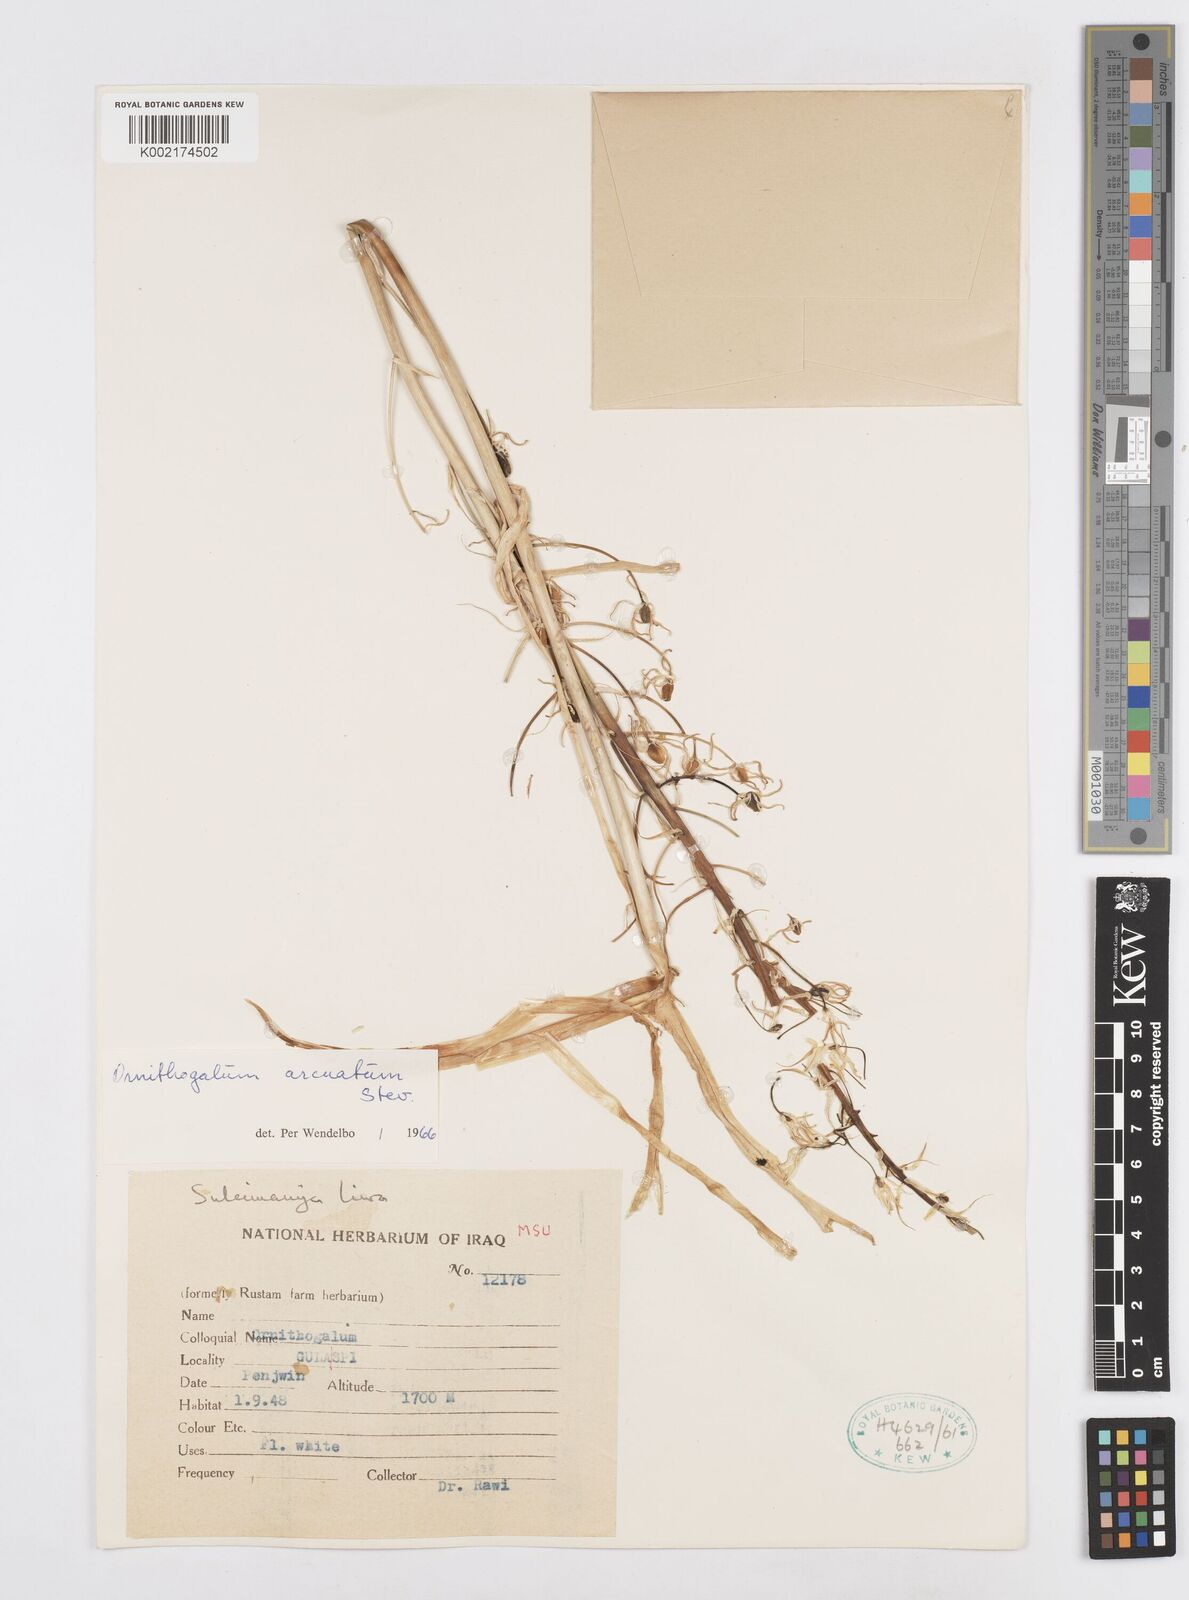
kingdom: Plantae
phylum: Tracheophyta
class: Liliopsida
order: Asparagales
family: Asparagaceae
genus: Ornithogalum
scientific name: Ornithogalum arcuatum
